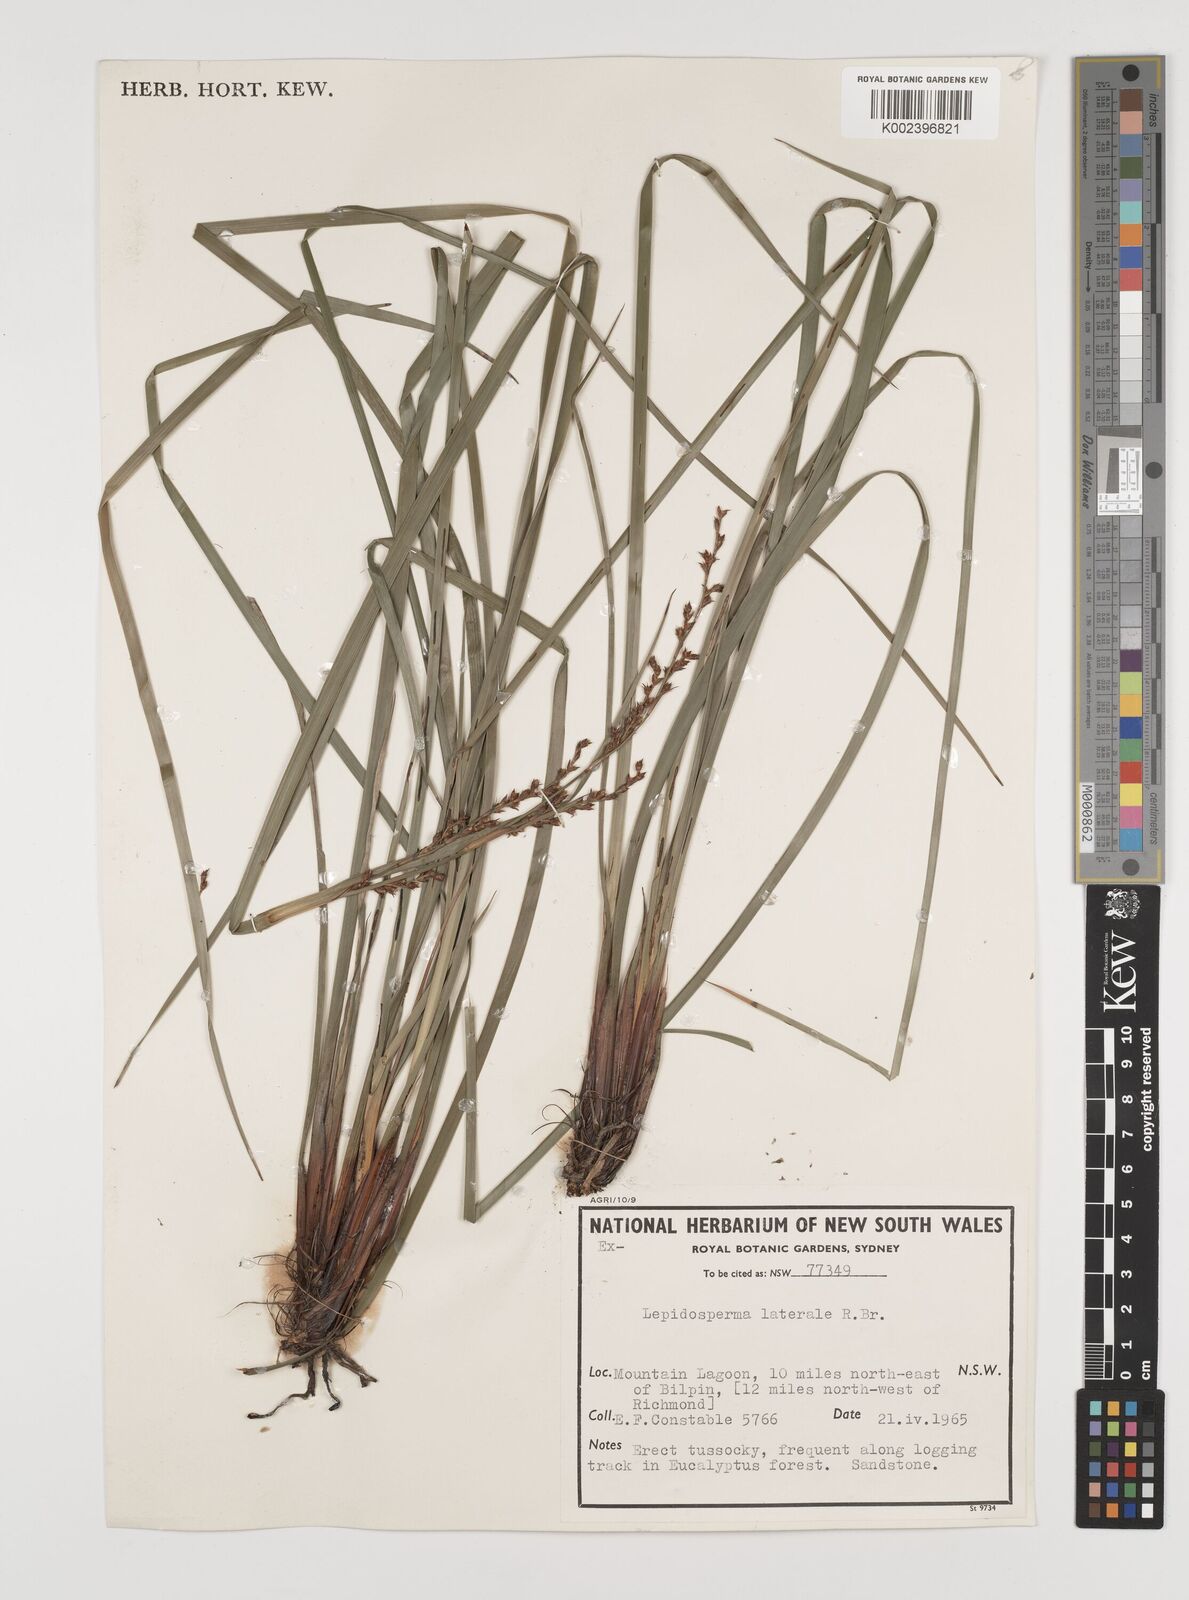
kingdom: Plantae
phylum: Tracheophyta
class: Liliopsida
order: Poales
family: Cyperaceae
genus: Lepidosperma
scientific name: Lepidosperma laterale
